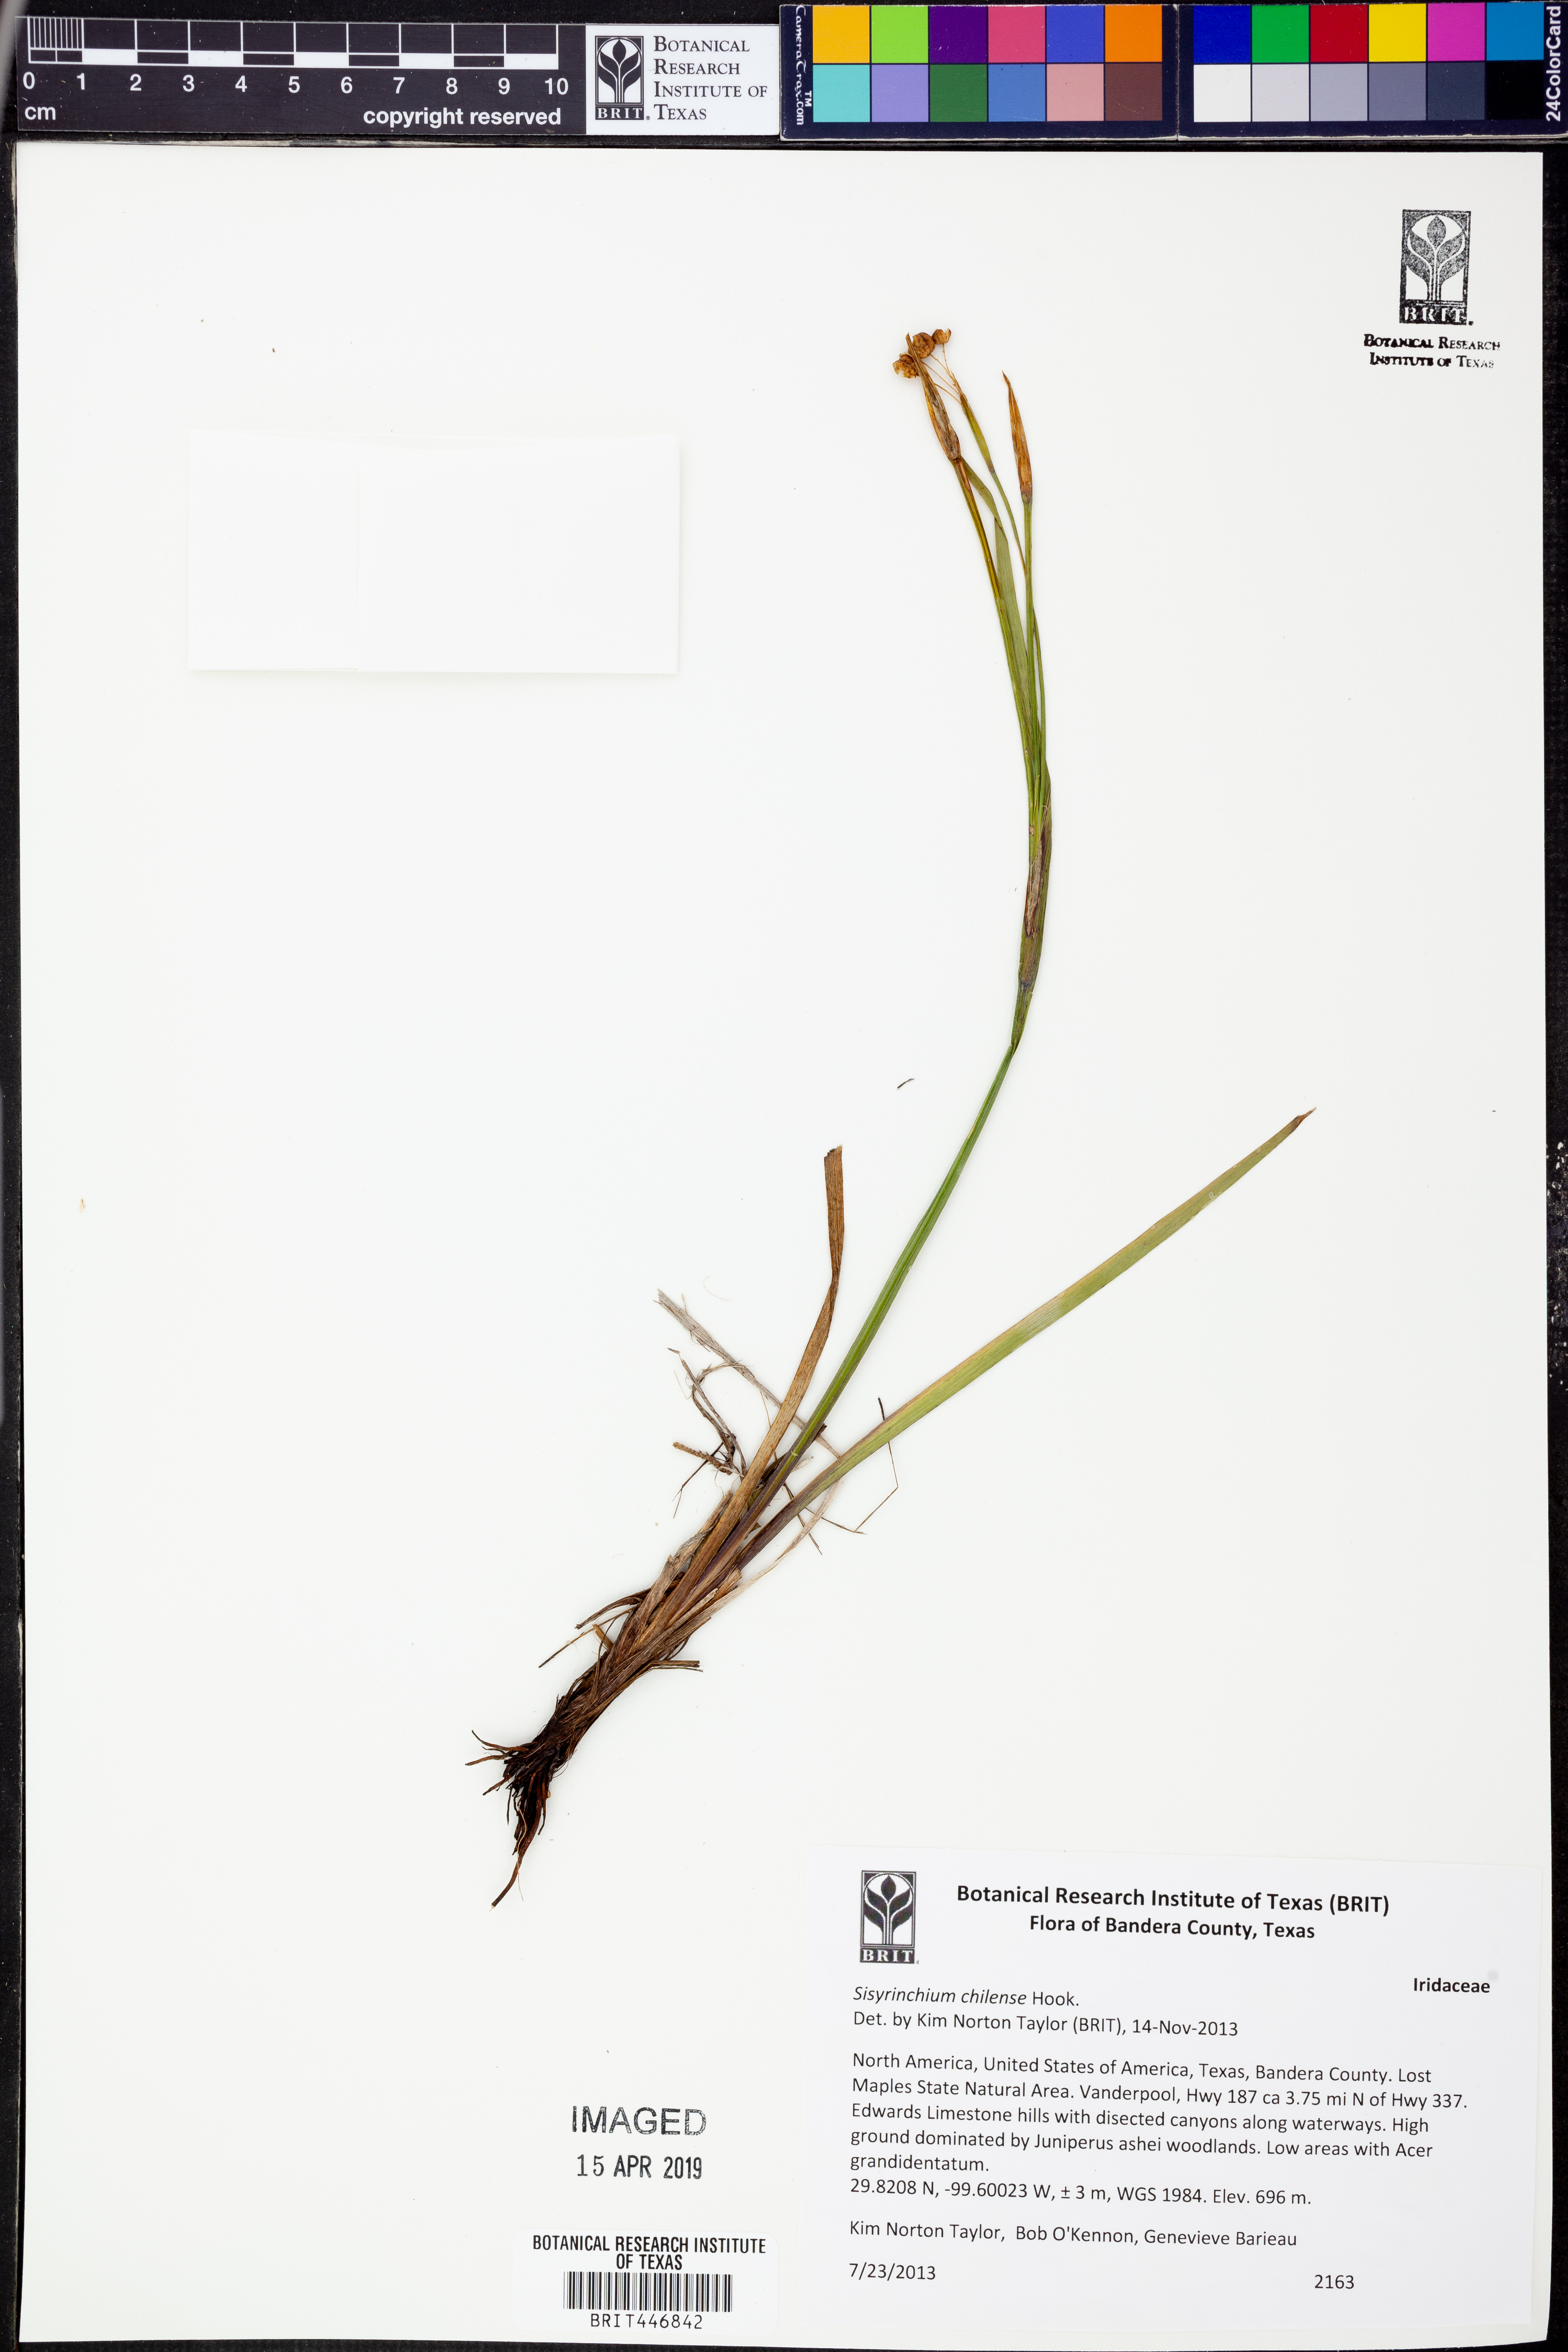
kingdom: Plantae
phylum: Tracheophyta
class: Liliopsida
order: Asparagales
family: Iridaceae
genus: Sisyrinchium
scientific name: Sisyrinchium chilense
